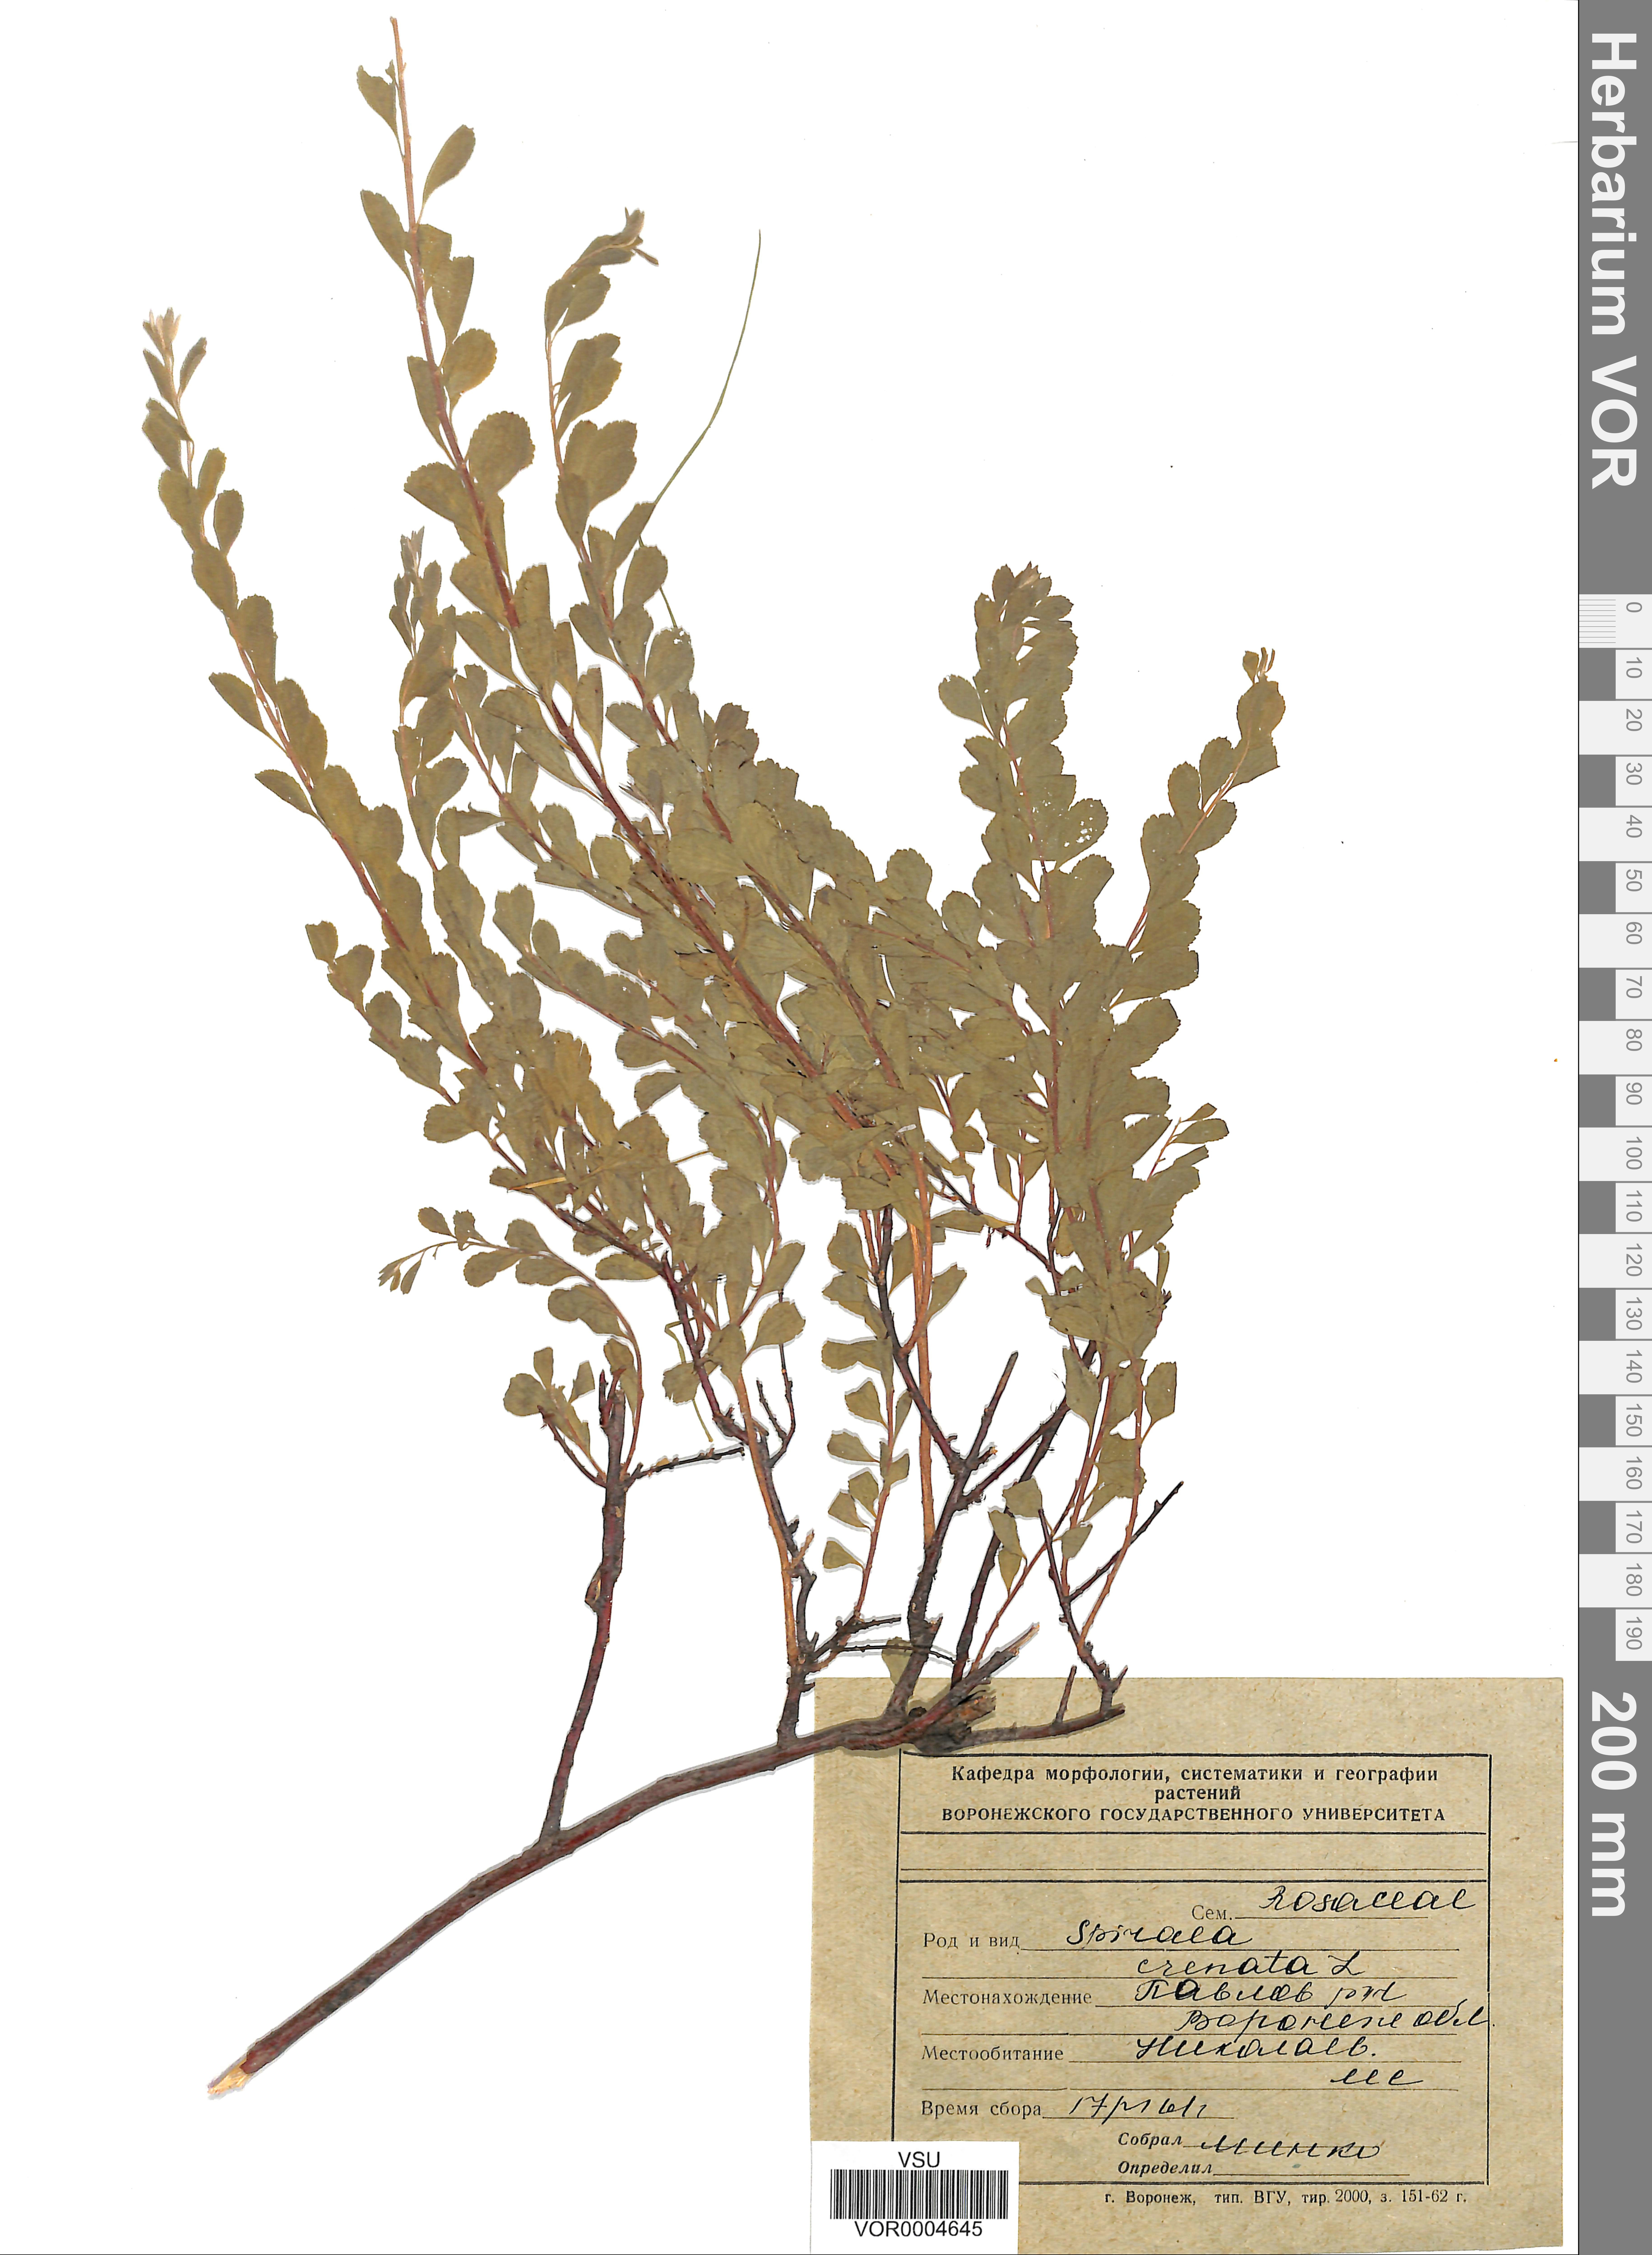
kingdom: Plantae
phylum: Tracheophyta
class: Magnoliopsida
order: Rosales
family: Rosaceae
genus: Spiraea
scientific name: Spiraea crenata
